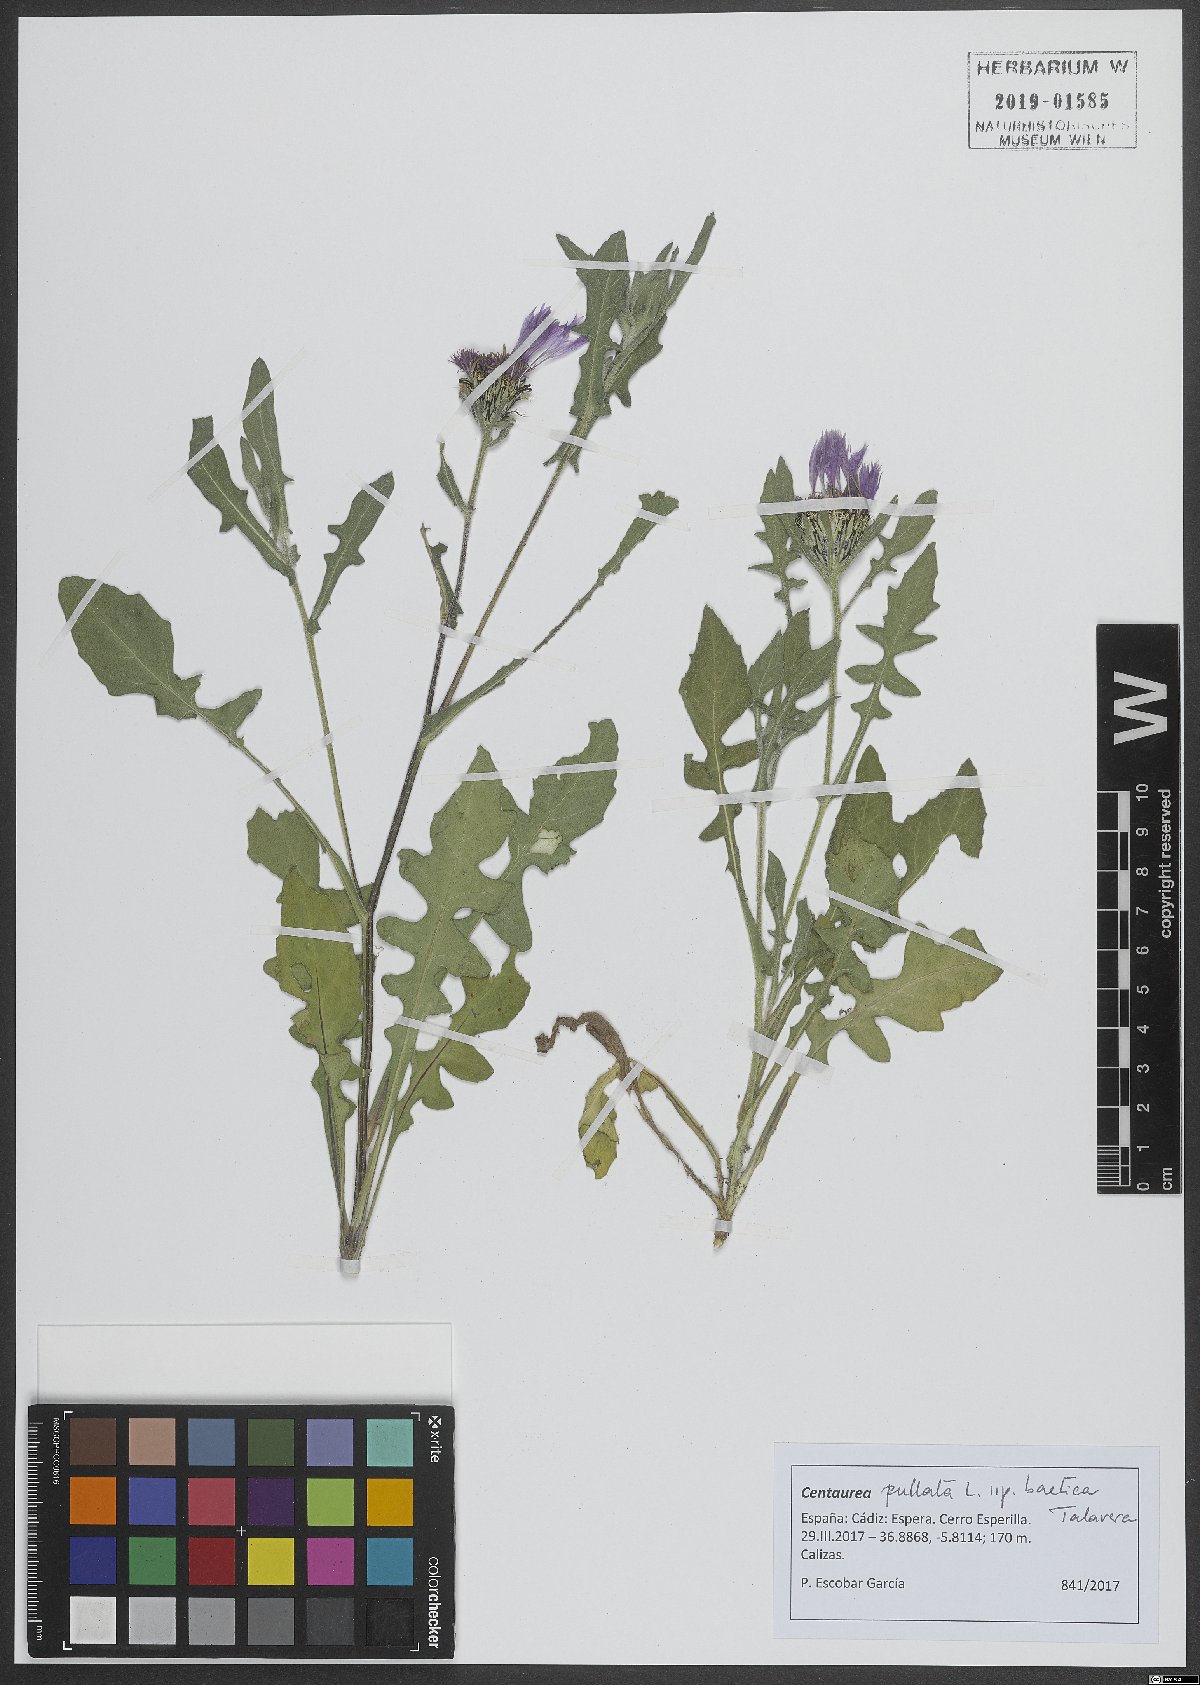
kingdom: Plantae
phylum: Tracheophyta
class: Magnoliopsida
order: Asterales
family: Asteraceae
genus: Centaurea
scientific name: Centaurea pullata
